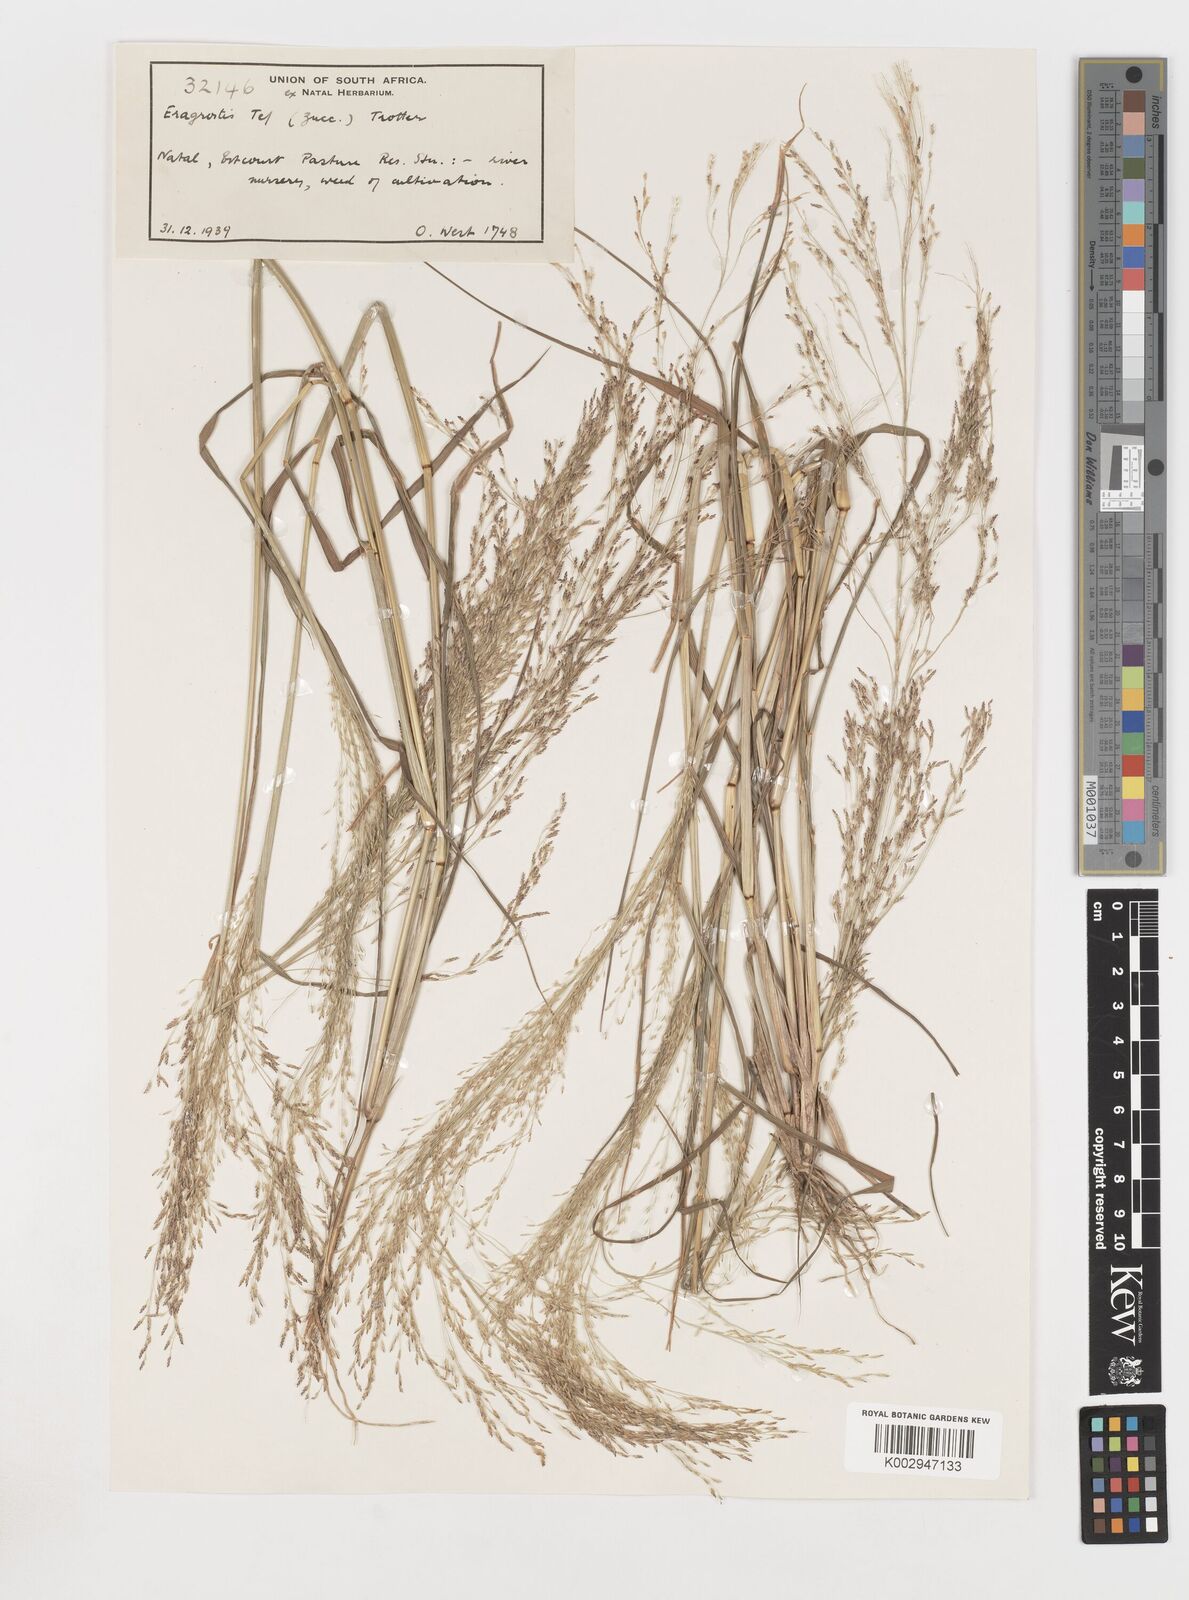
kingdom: Plantae
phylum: Tracheophyta
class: Liliopsida
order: Poales
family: Poaceae
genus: Eragrostis
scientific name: Eragrostis tef
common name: Teff
